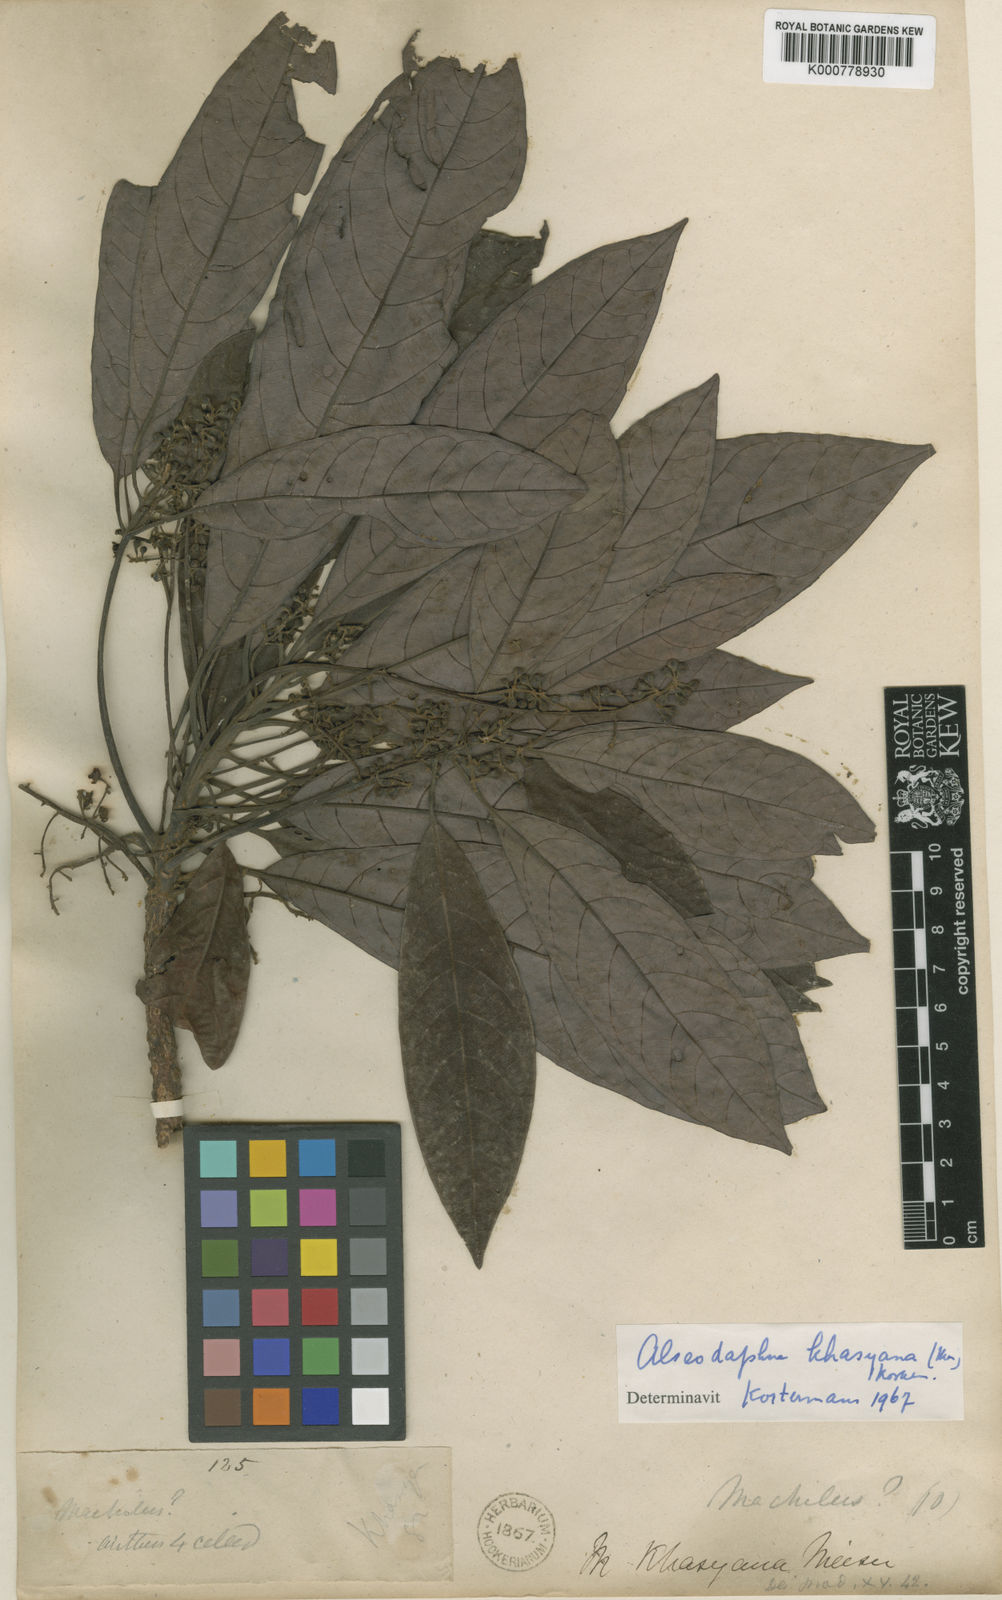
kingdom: Plantae
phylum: Tracheophyta
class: Magnoliopsida
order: Laurales
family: Lauraceae
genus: Alseodaphne
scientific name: Alseodaphne elongata
